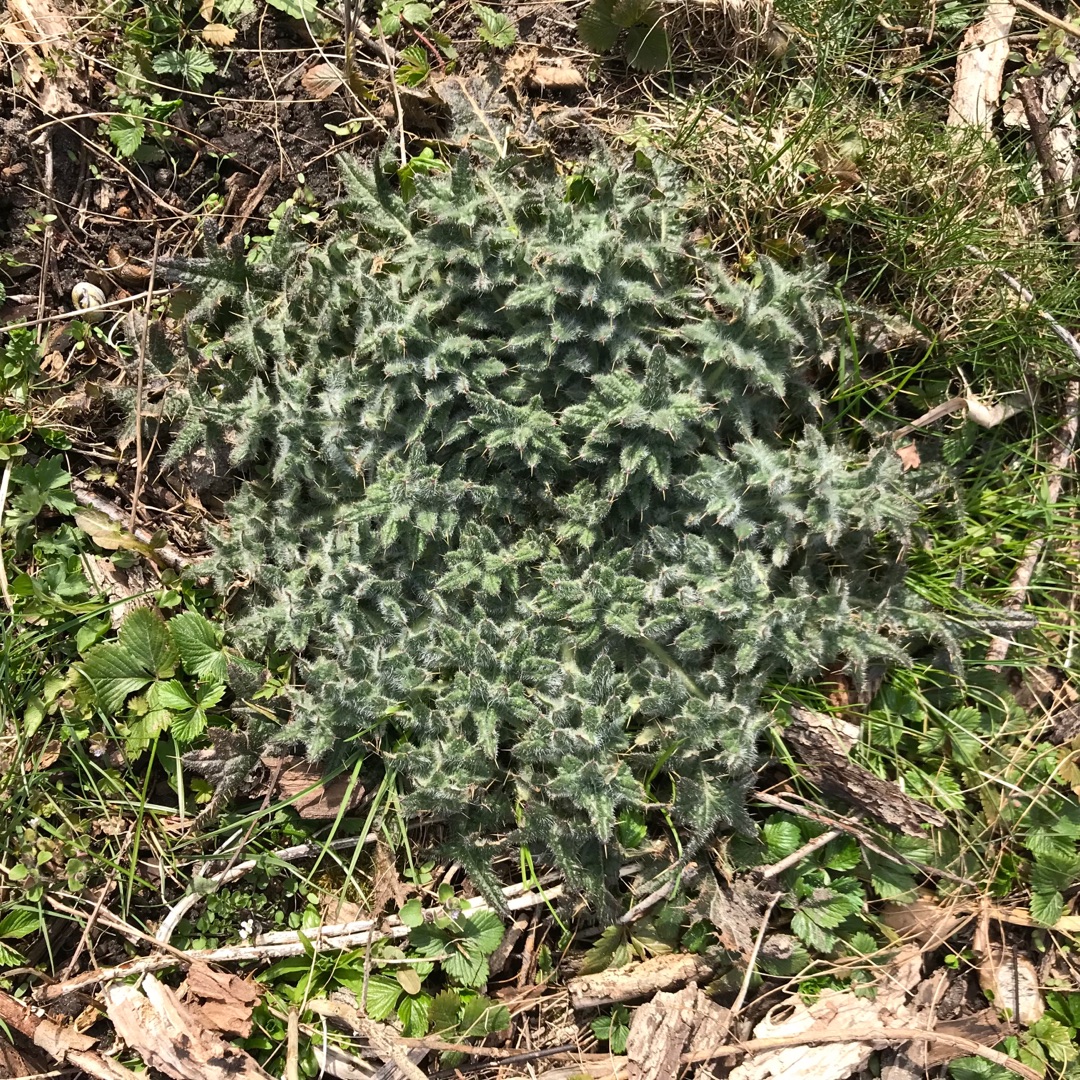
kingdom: Plantae
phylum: Tracheophyta
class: Magnoliopsida
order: Asterales
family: Asteraceae
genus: Cirsium
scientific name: Cirsium vulgare
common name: Horse-tidsel
